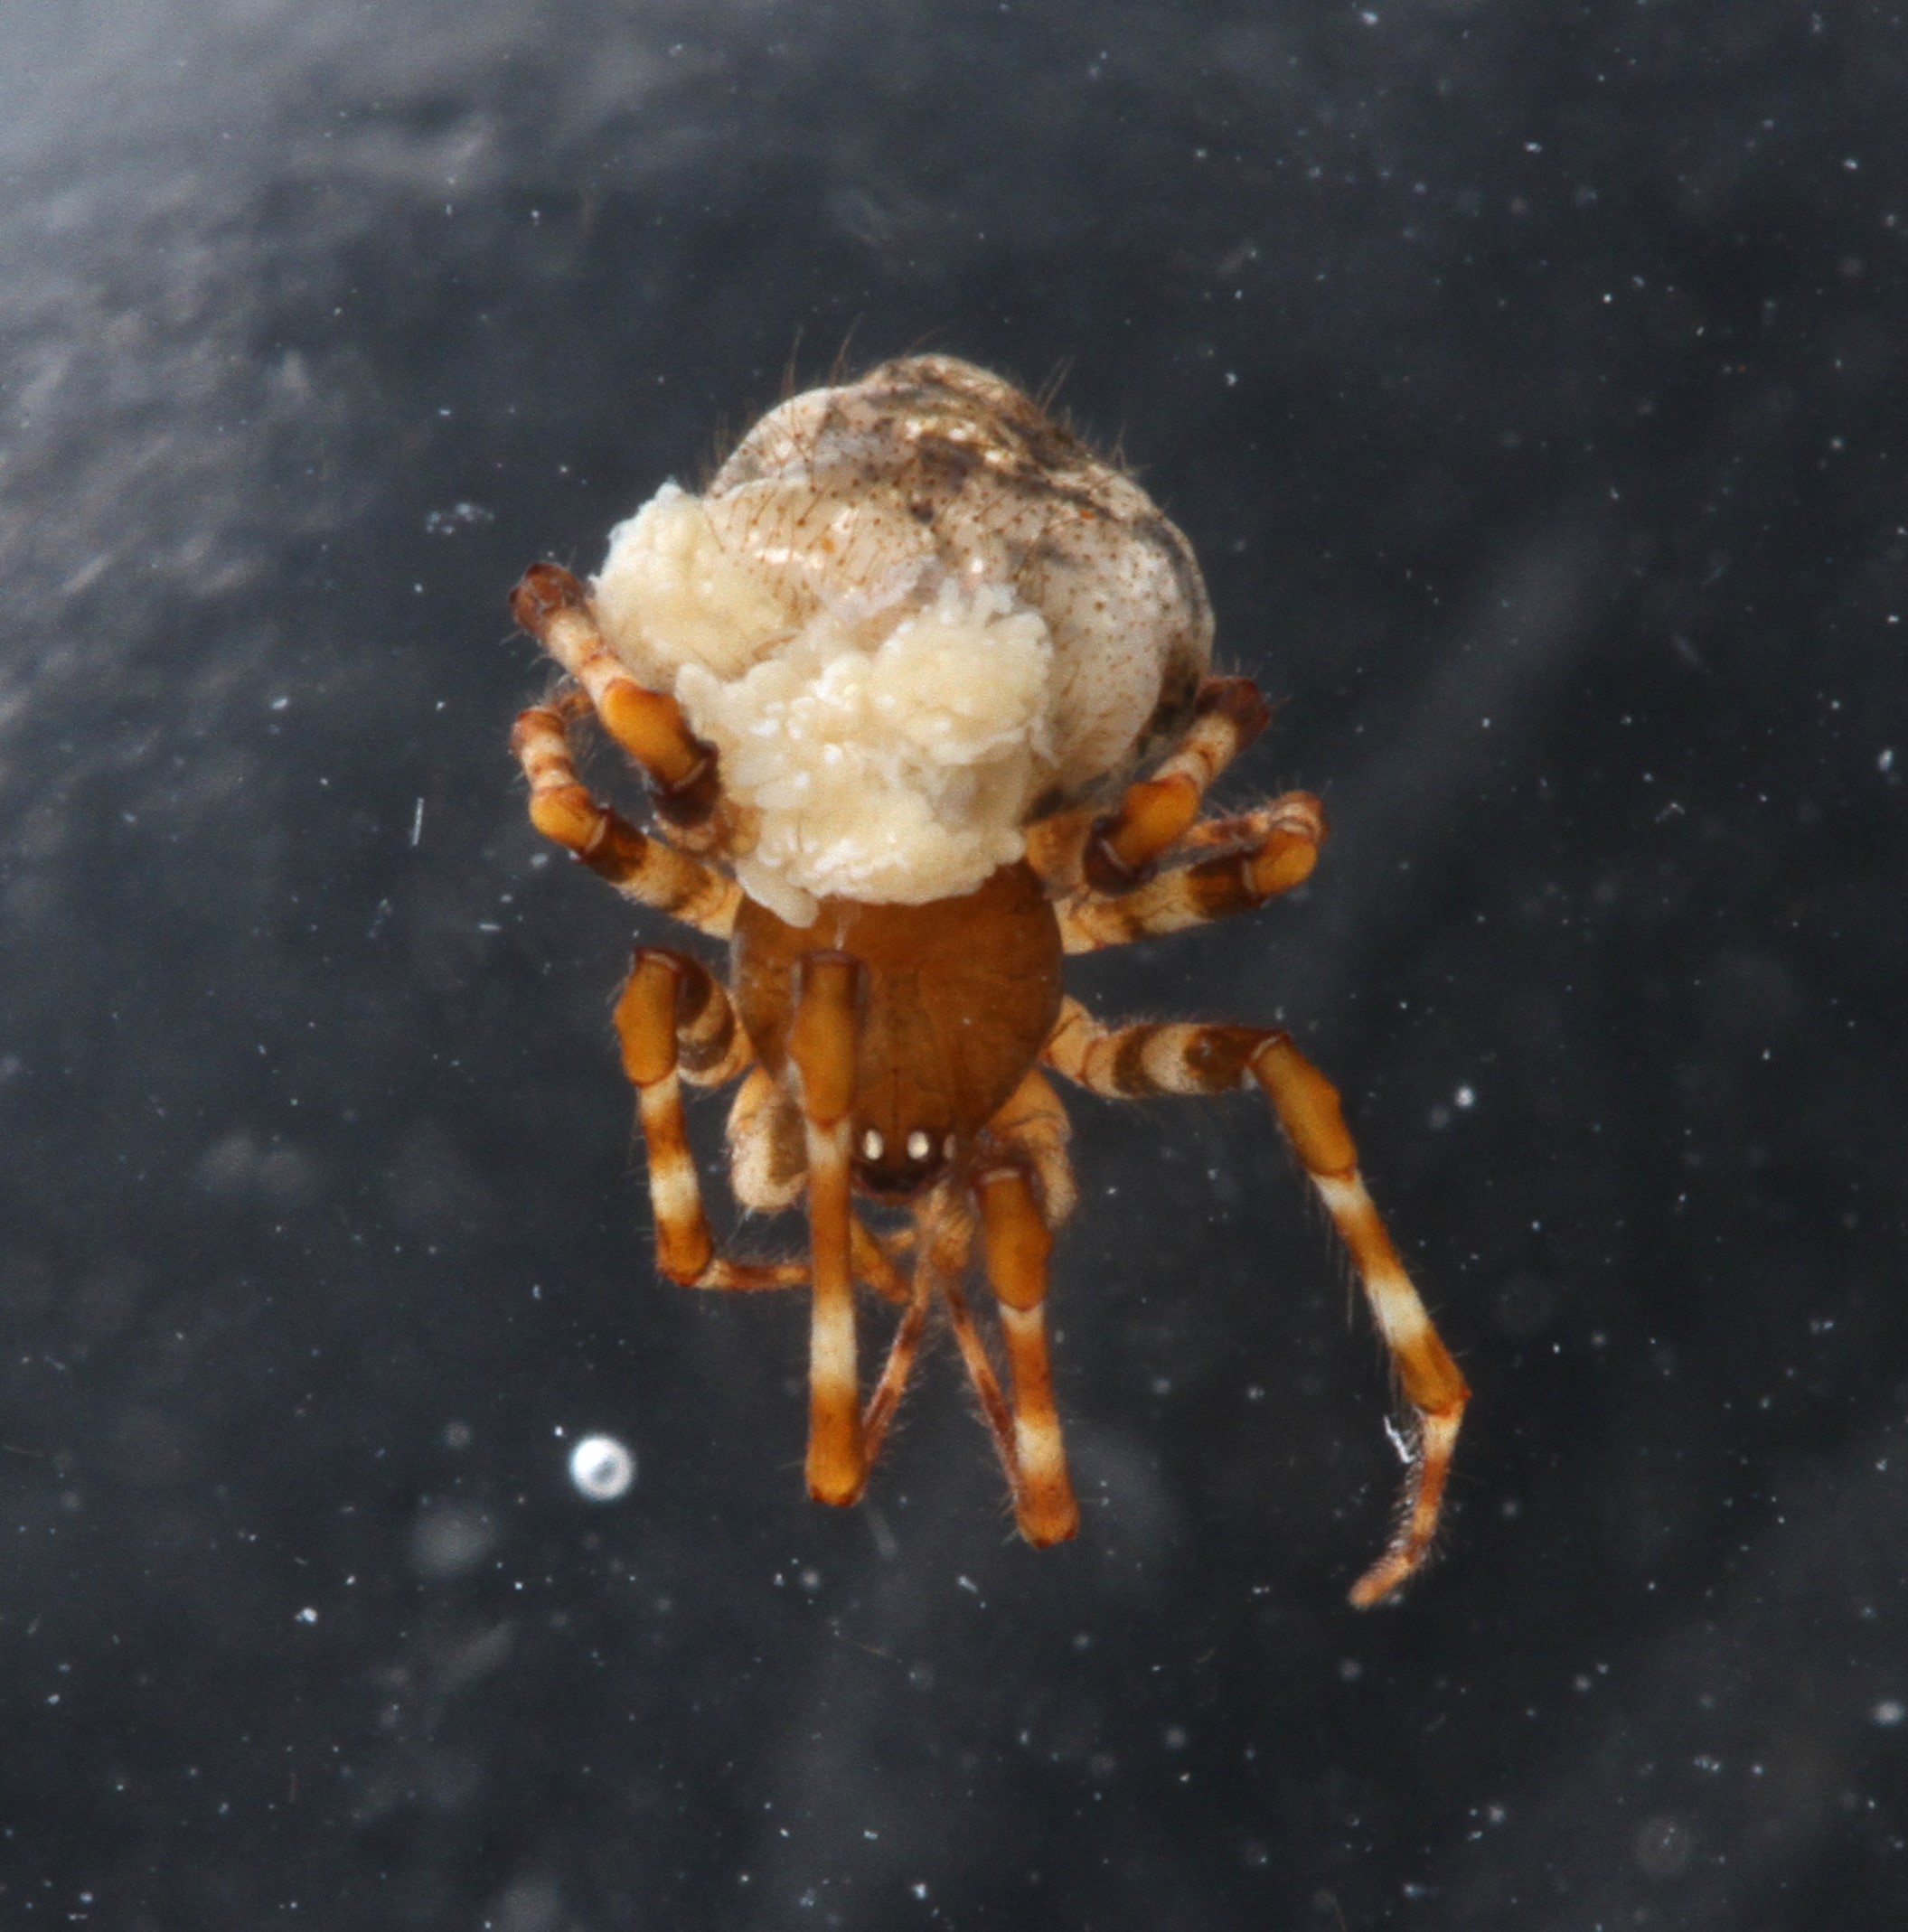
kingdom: Animalia
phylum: Arthropoda
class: Arachnida
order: Araneae
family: Theridiidae
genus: Cryptachaea
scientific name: Cryptachaea porteri
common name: Cobweb spiders
